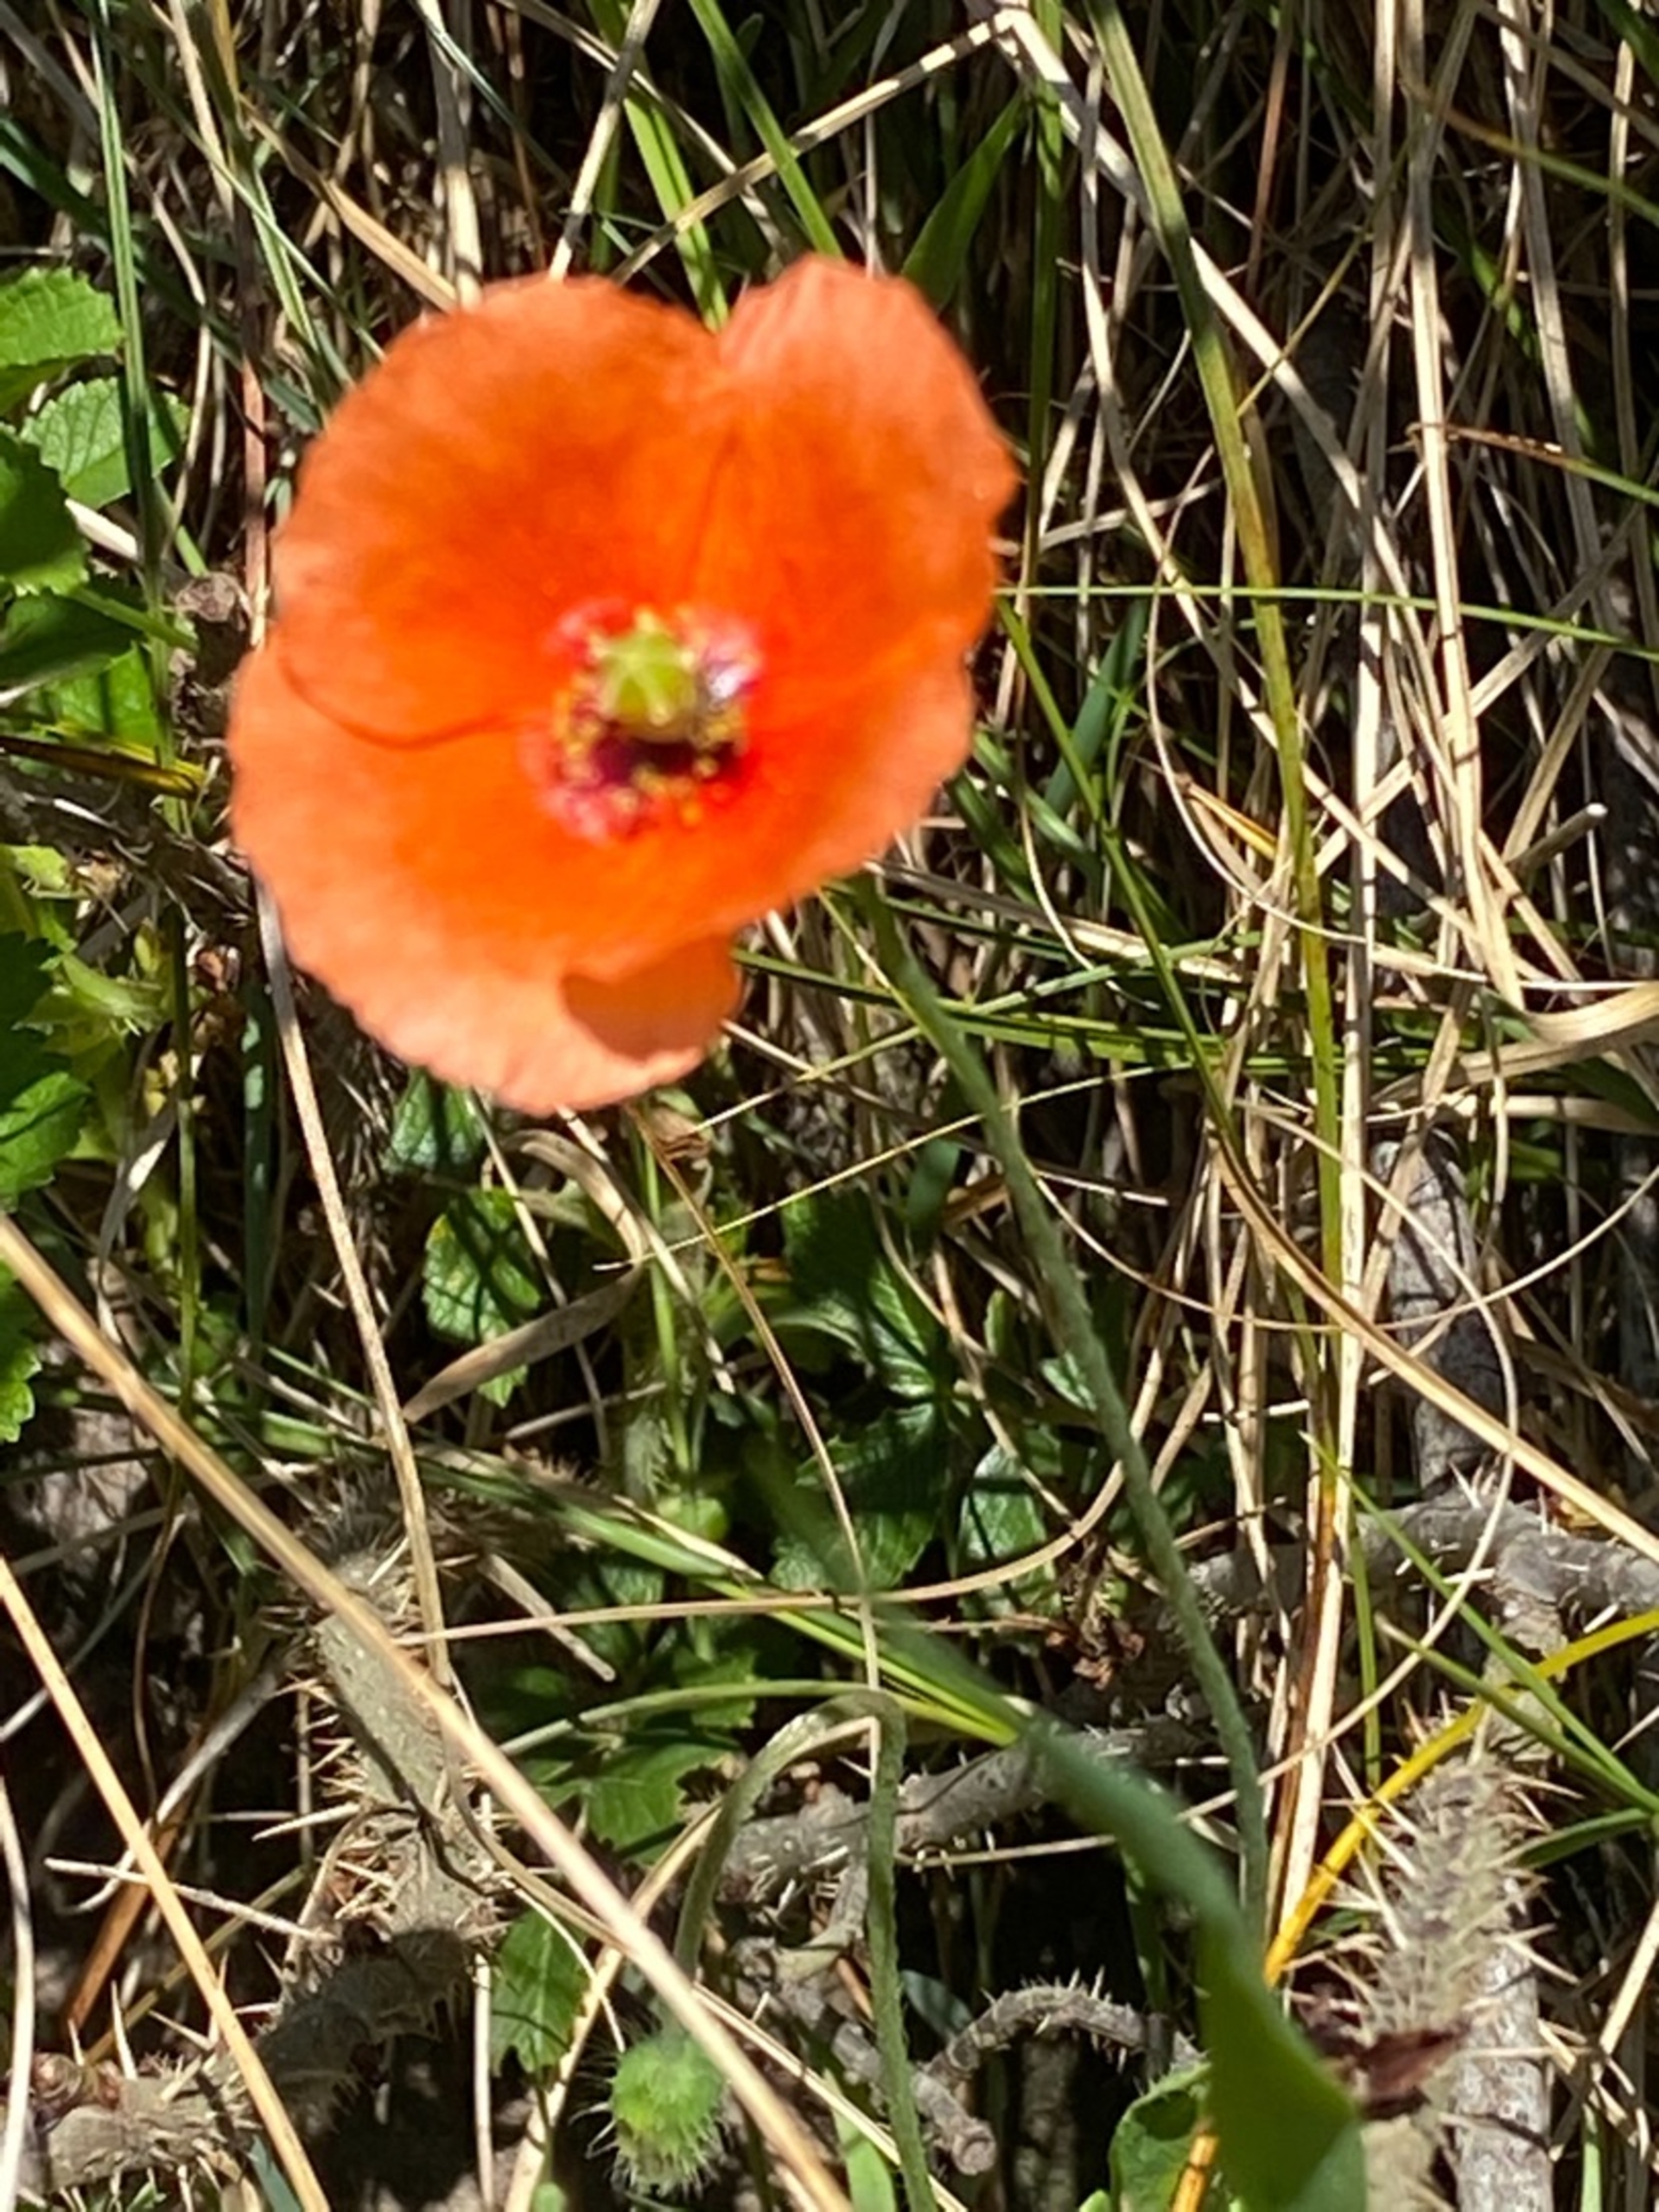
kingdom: Plantae
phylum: Tracheophyta
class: Magnoliopsida
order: Ranunculales
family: Papaveraceae
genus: Papaver
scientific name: Papaver dubium
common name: Gærde-valmue
